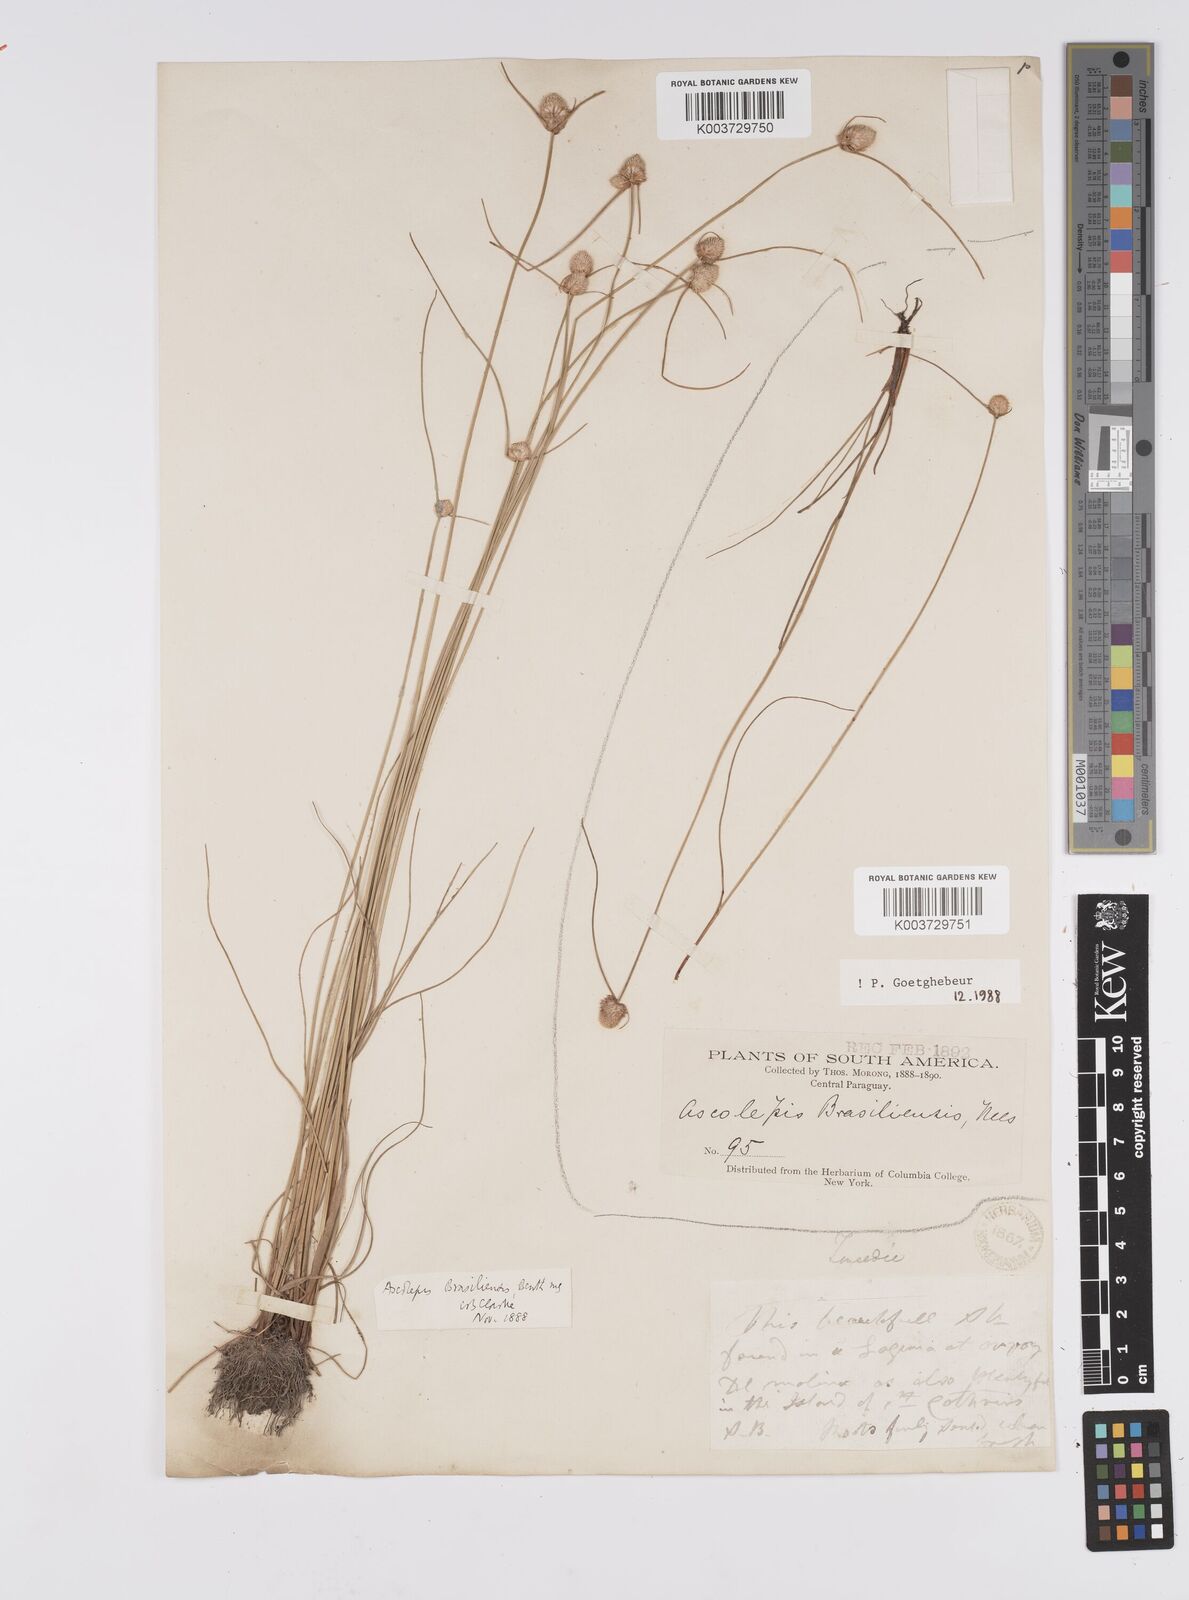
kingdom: Plantae
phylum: Tracheophyta
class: Liliopsida
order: Poales
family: Cyperaceae
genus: Cyperus
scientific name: Cyperus brasiliensis
